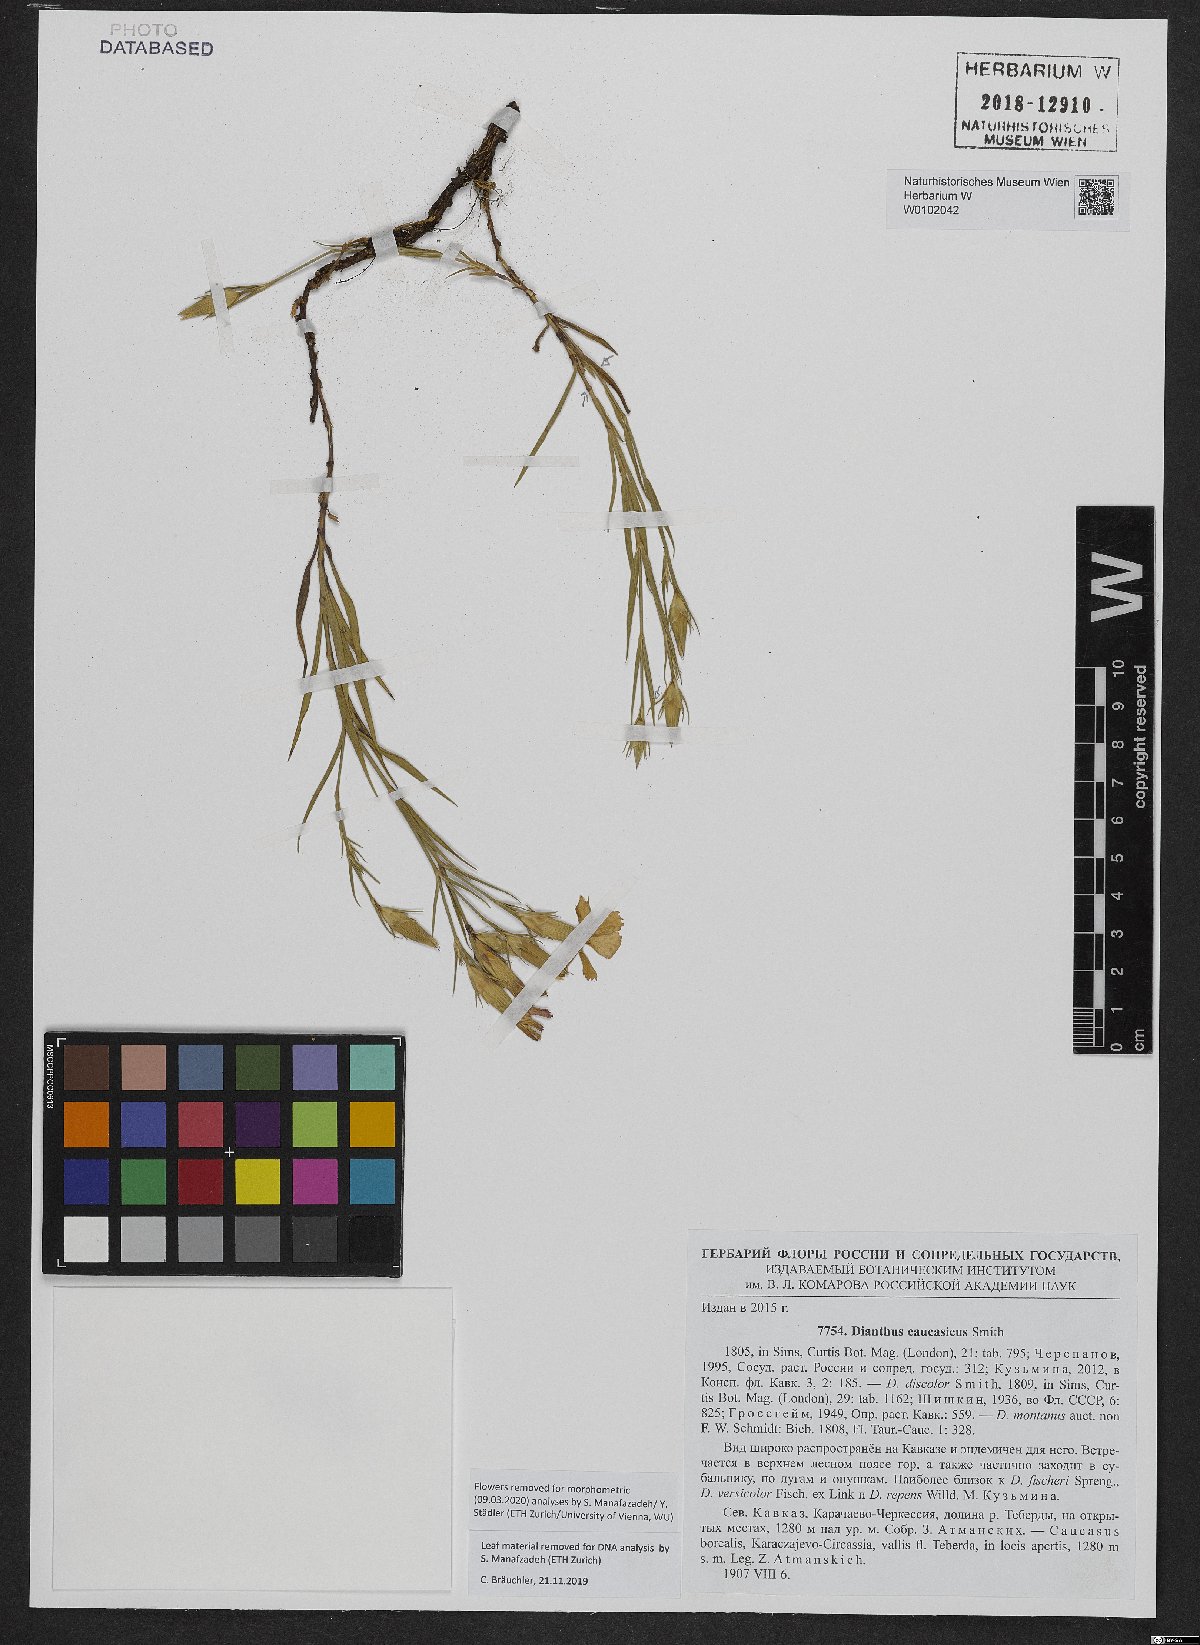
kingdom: Plantae
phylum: Tracheophyta
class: Magnoliopsida
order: Caryophyllales
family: Caryophyllaceae
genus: Dianthus
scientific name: Dianthus caucaseus
